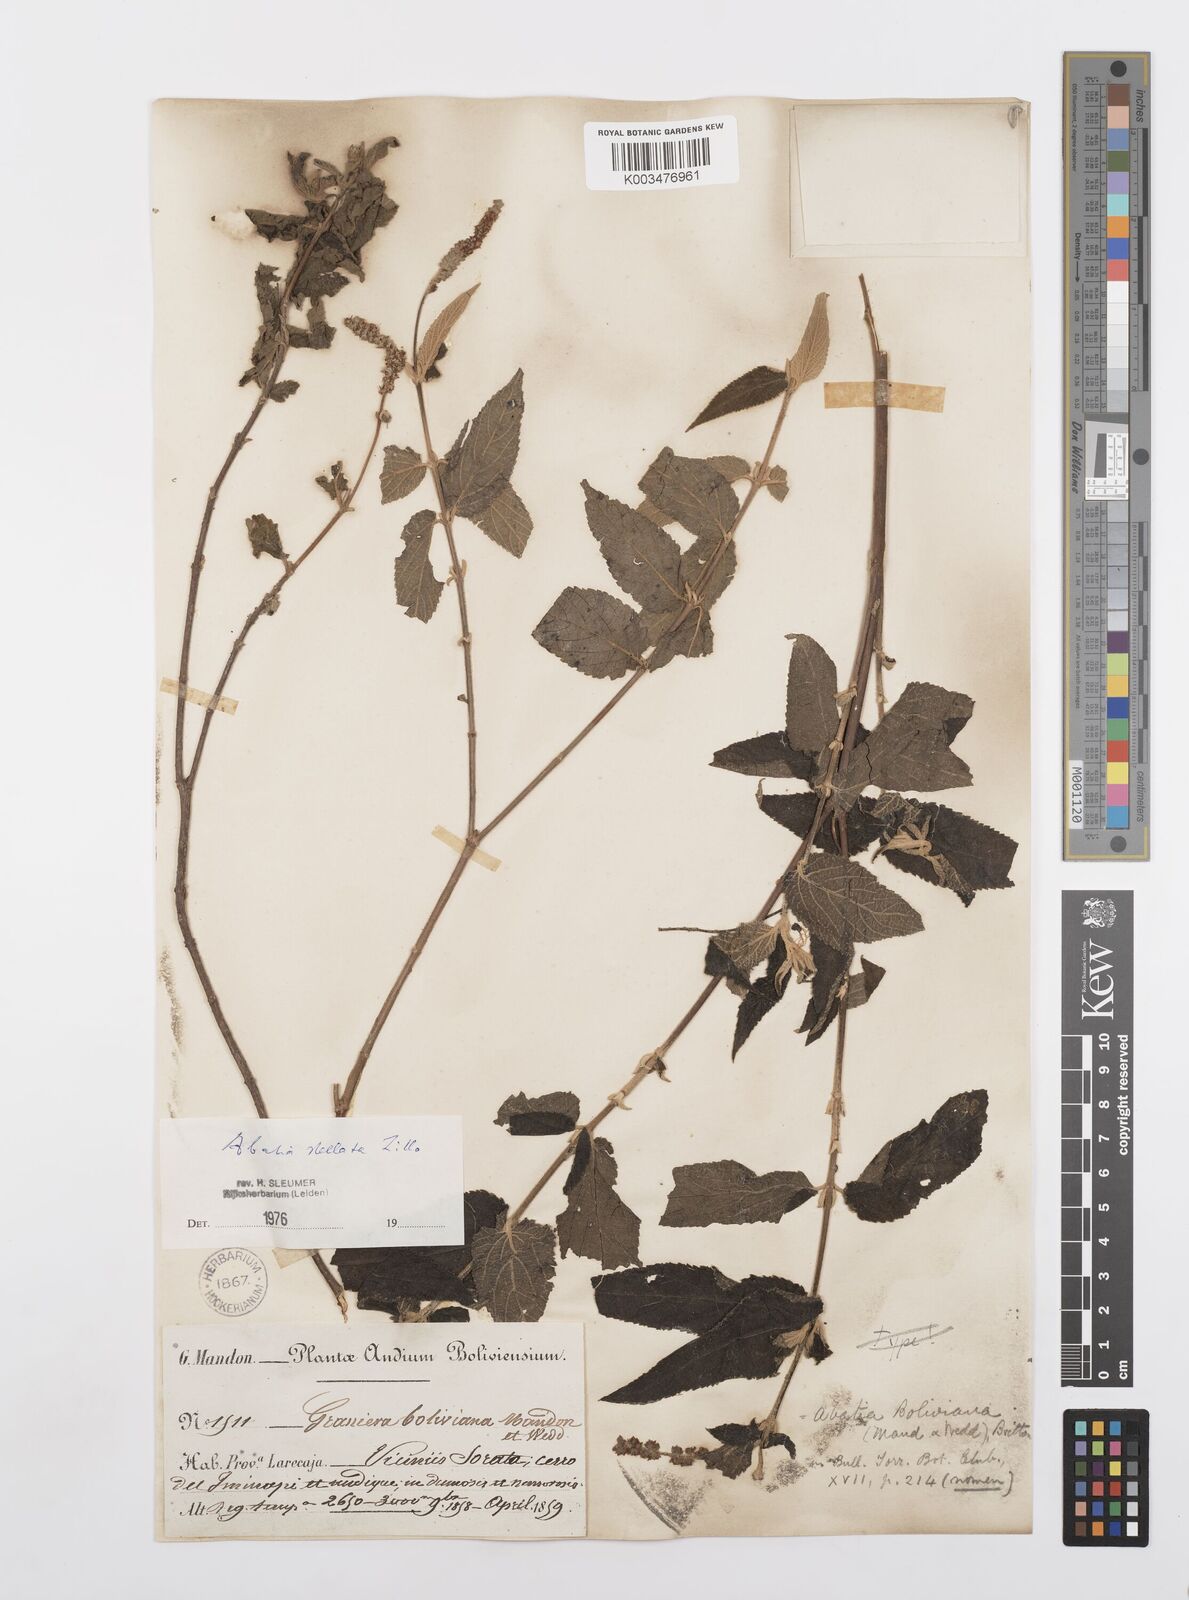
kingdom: Plantae
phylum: Tracheophyta
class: Magnoliopsida
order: Malpighiales
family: Salicaceae
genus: Abatia
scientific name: Abatia stellata
